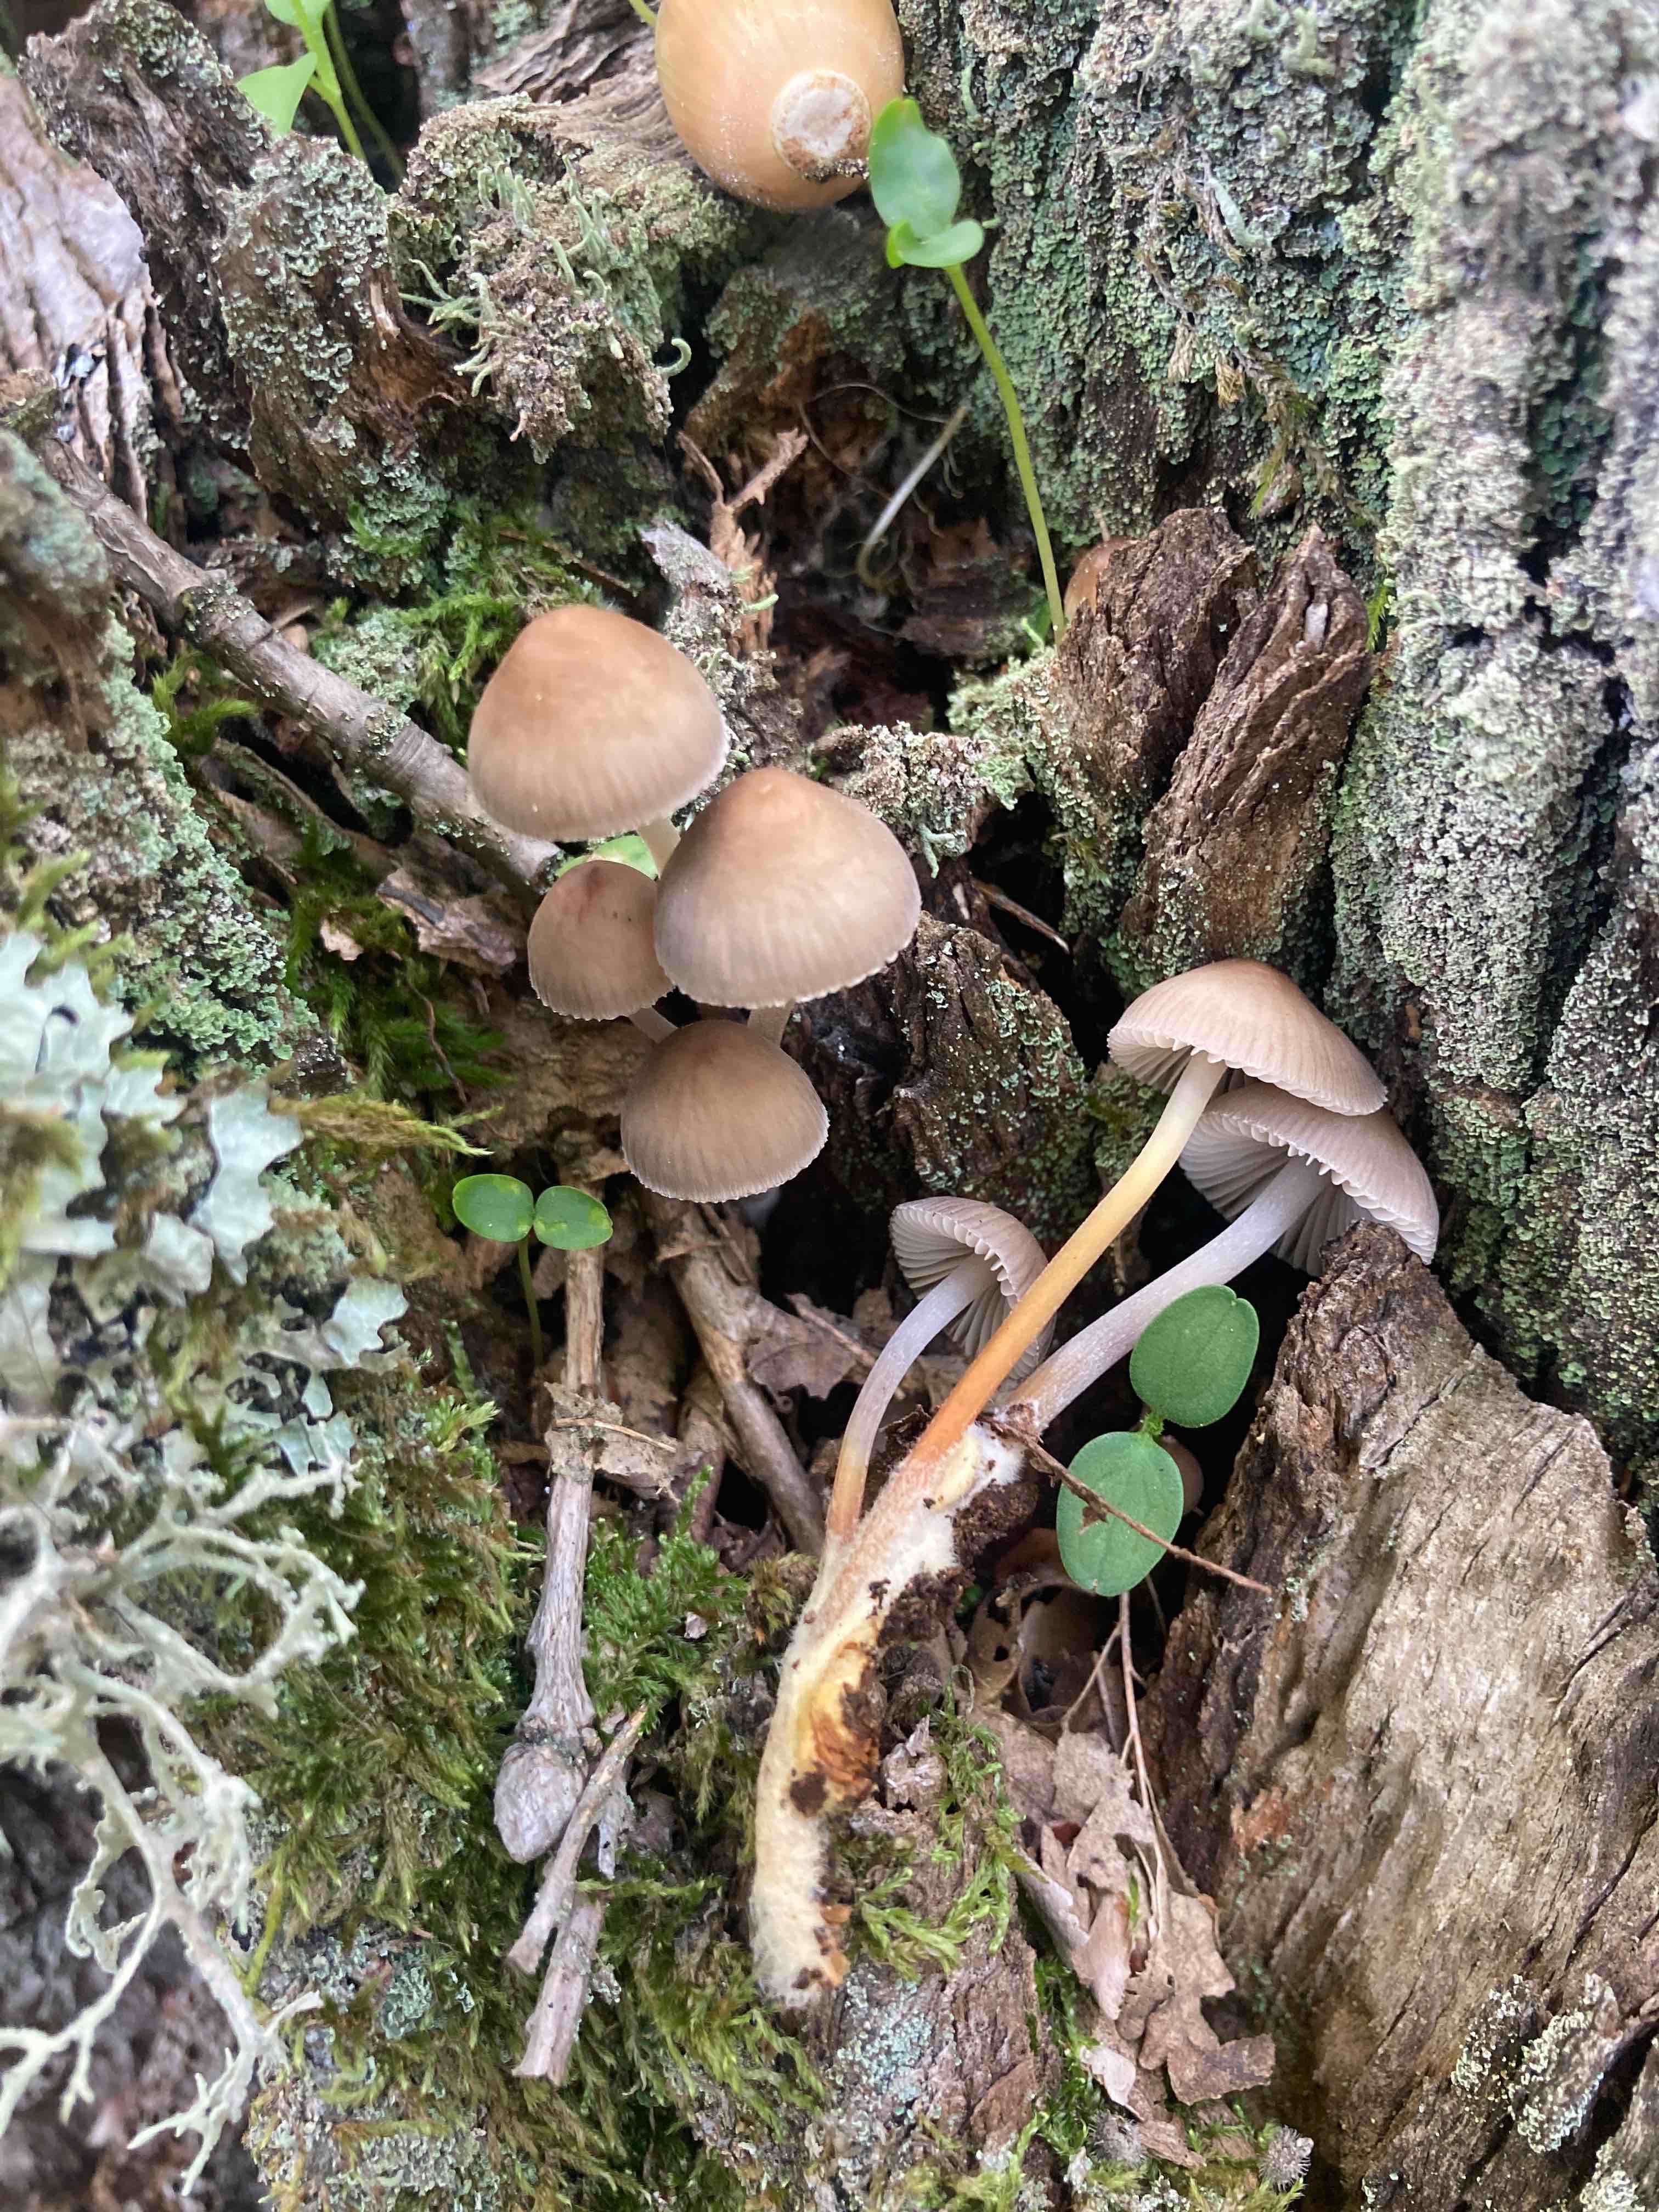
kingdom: Fungi
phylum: Basidiomycota
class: Agaricomycetes
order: Agaricales
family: Mycenaceae
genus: Mycena
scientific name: Mycena inclinata
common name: nikkende huesvamp
